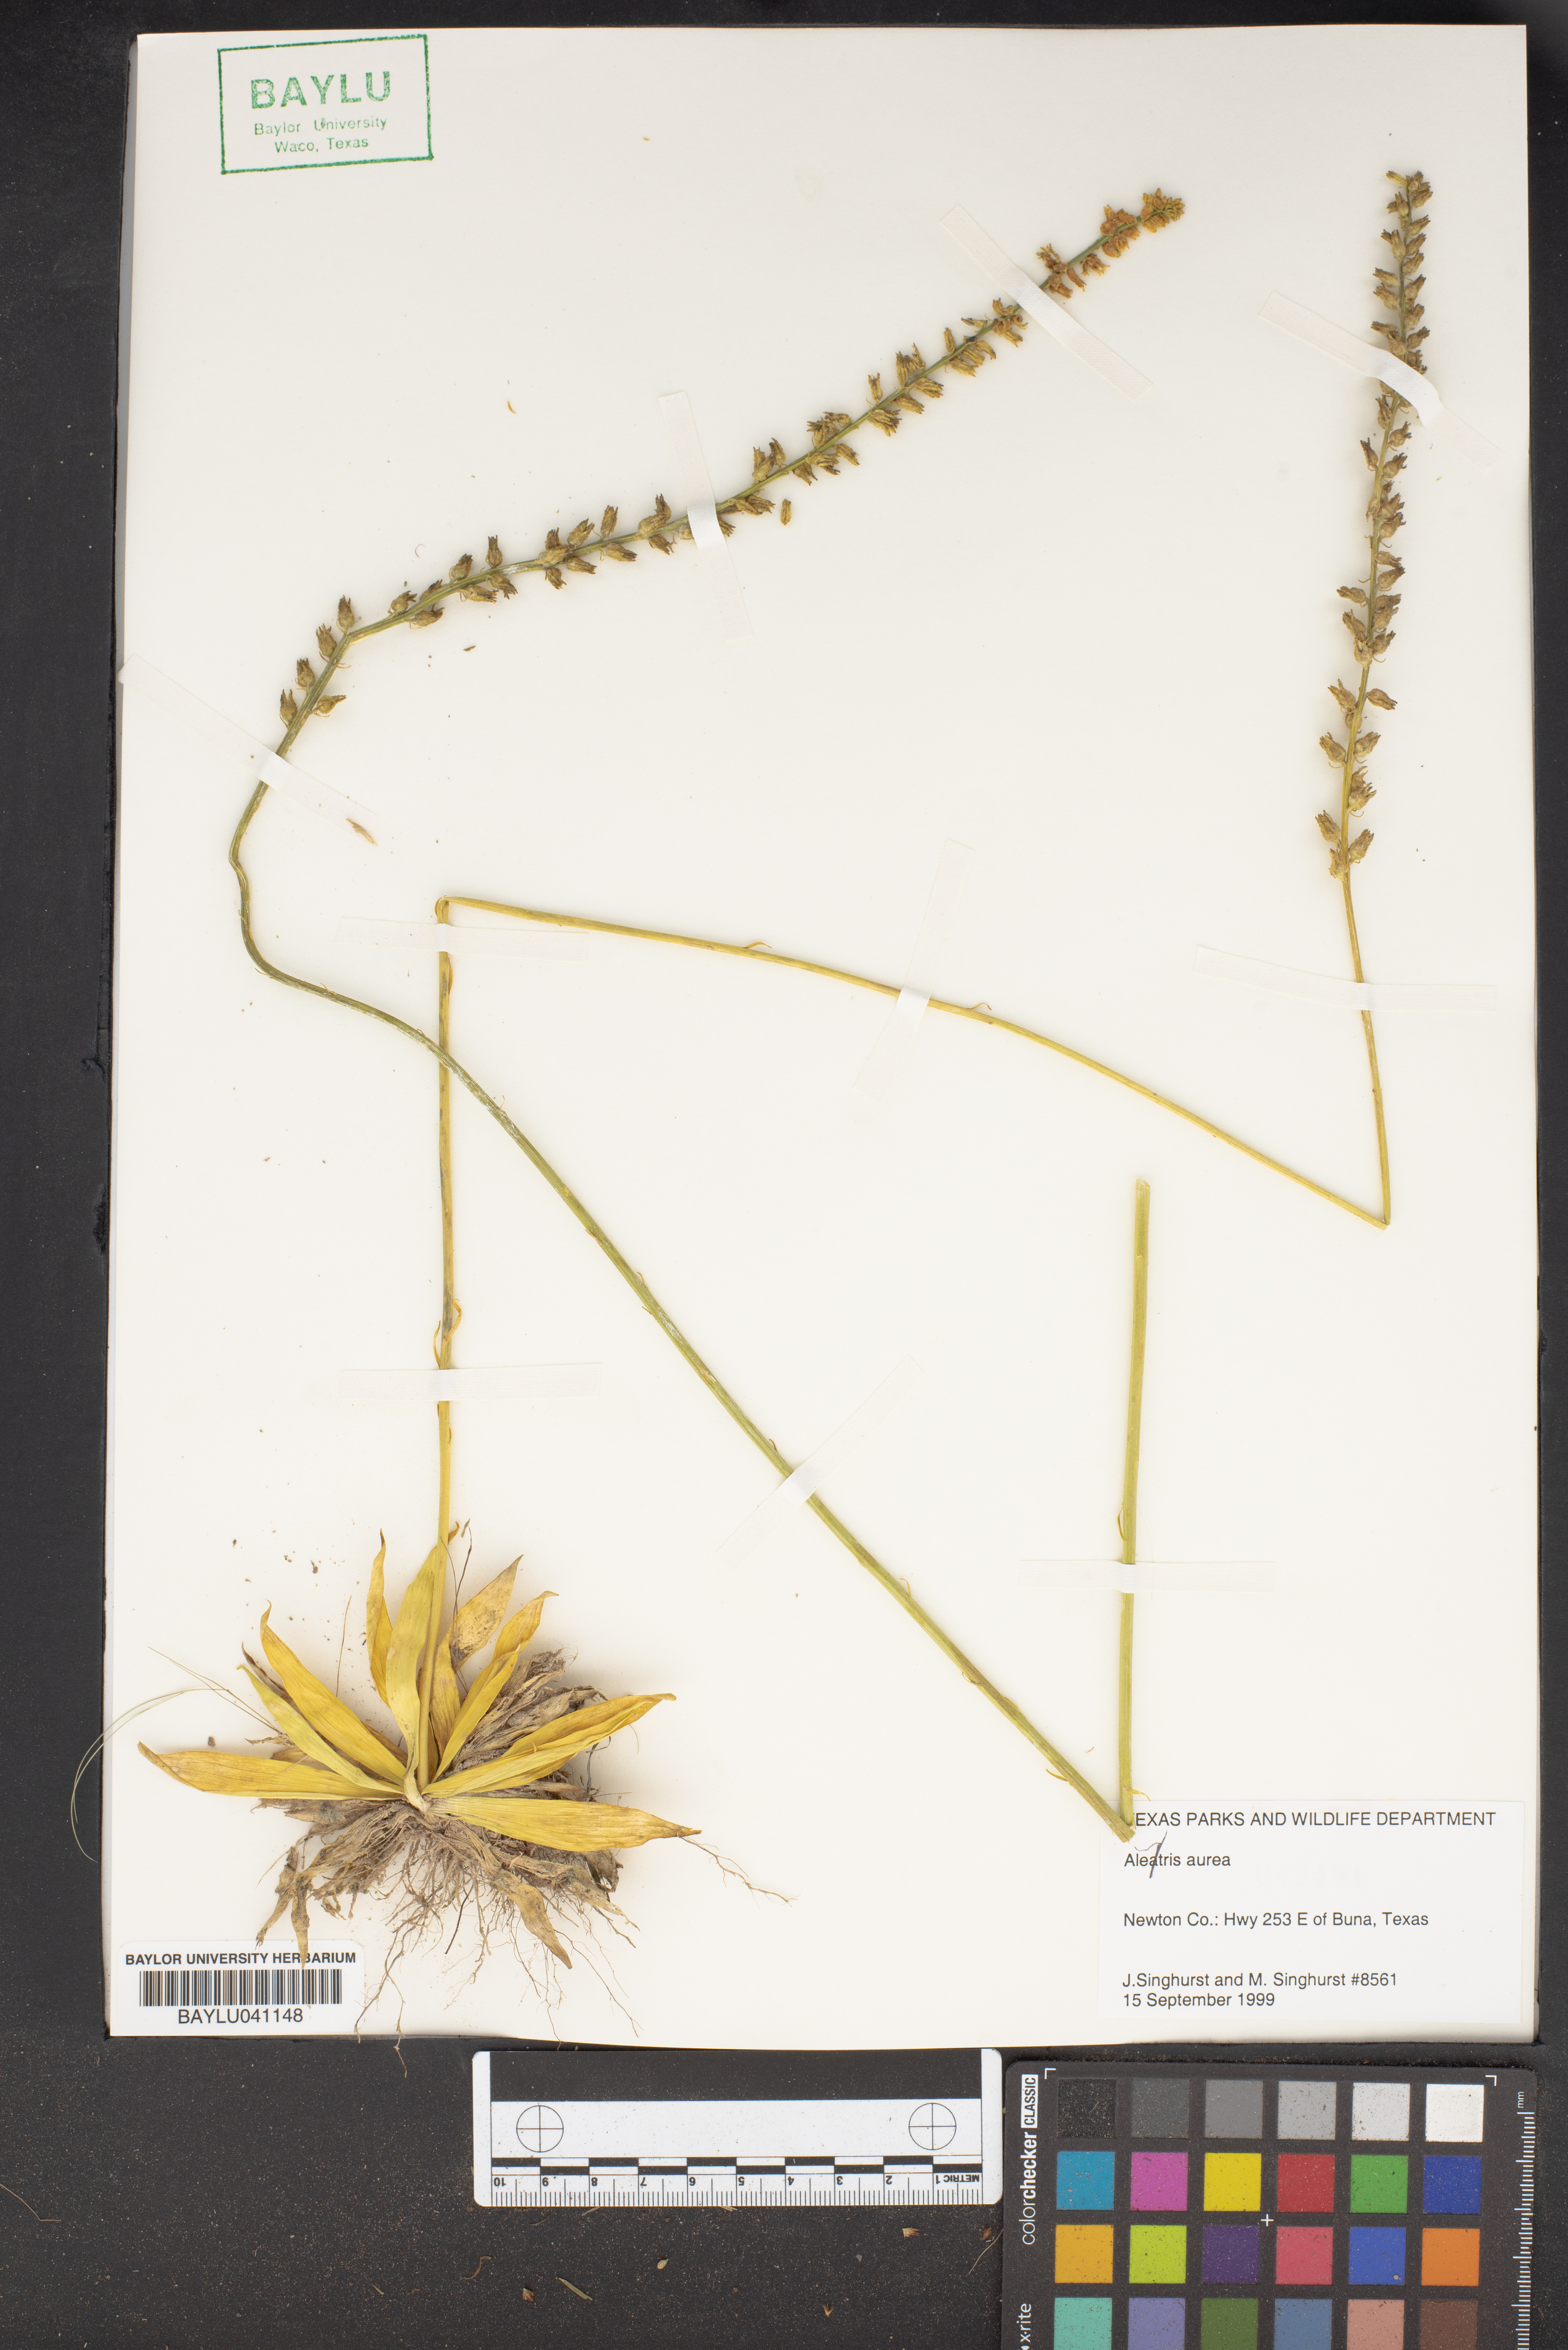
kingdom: Plantae
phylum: Tracheophyta
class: Liliopsida
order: Dioscoreales
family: Nartheciaceae
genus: Aletris
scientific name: Aletris aurea
